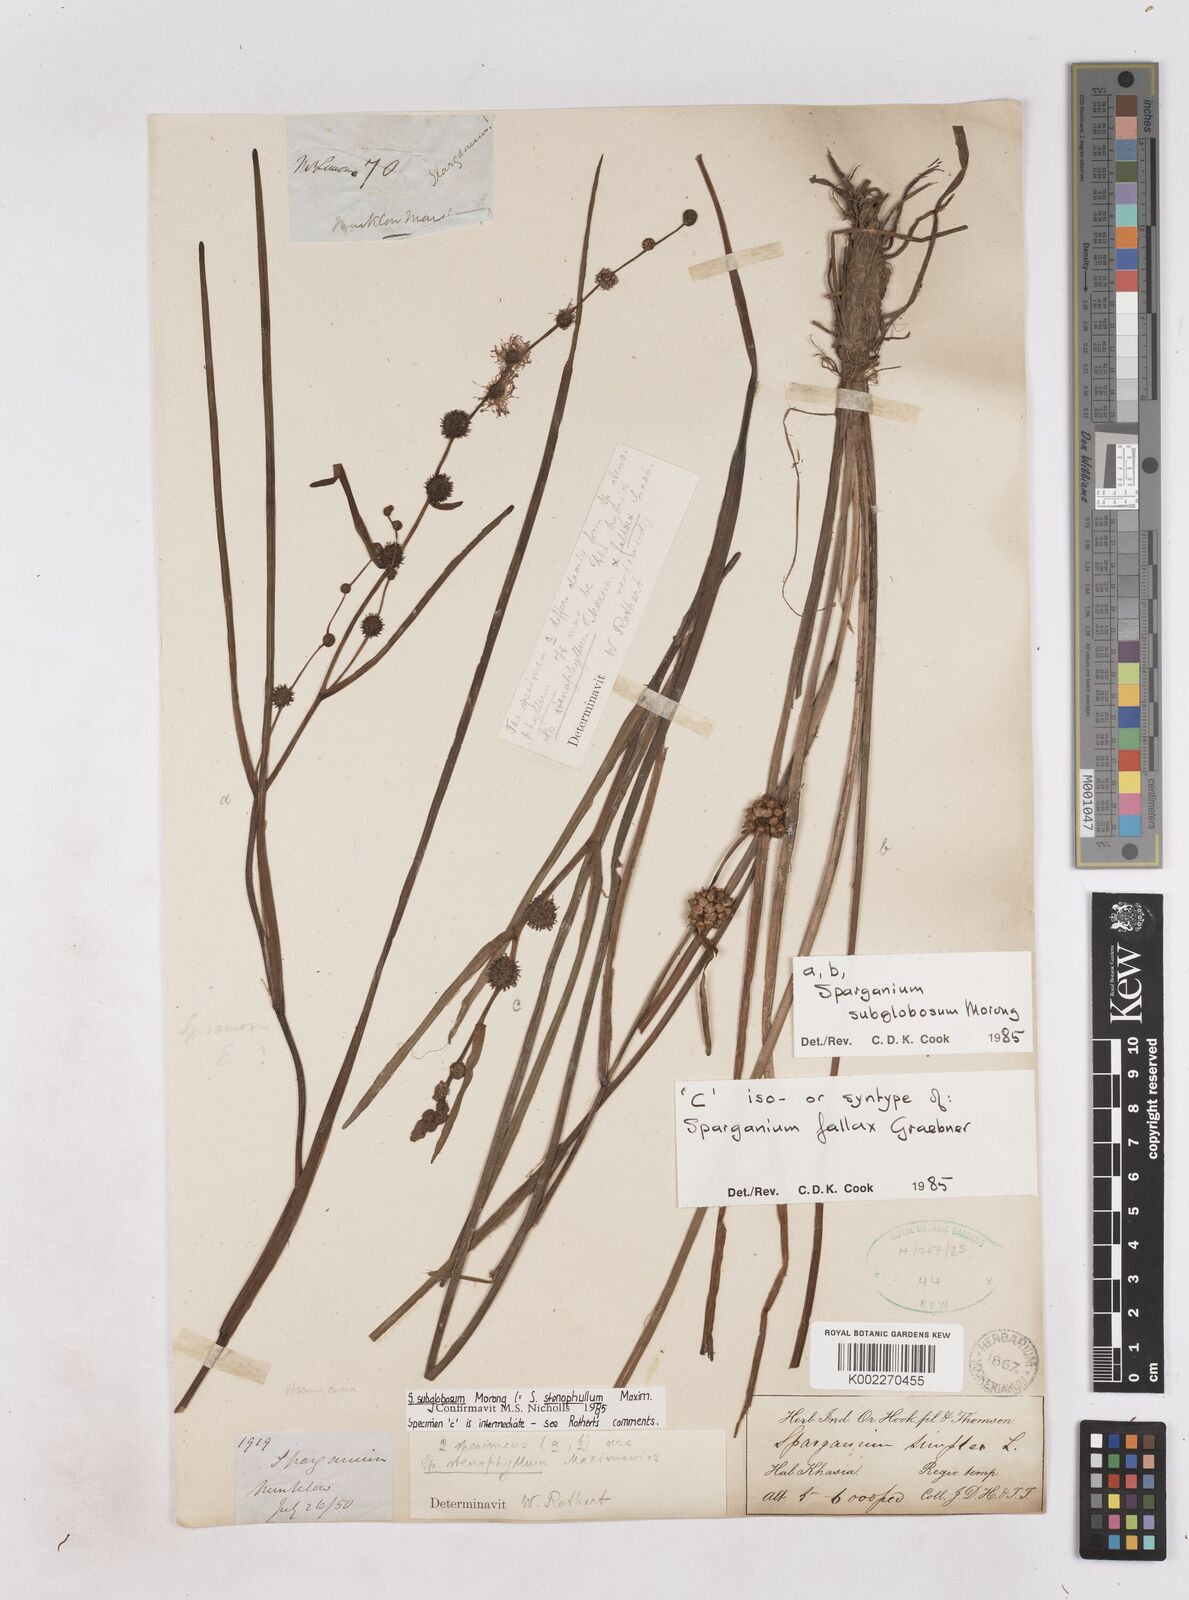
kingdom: Plantae
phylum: Tracheophyta
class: Liliopsida
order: Poales
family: Typhaceae
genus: Sparganium
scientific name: Sparganium fallax
